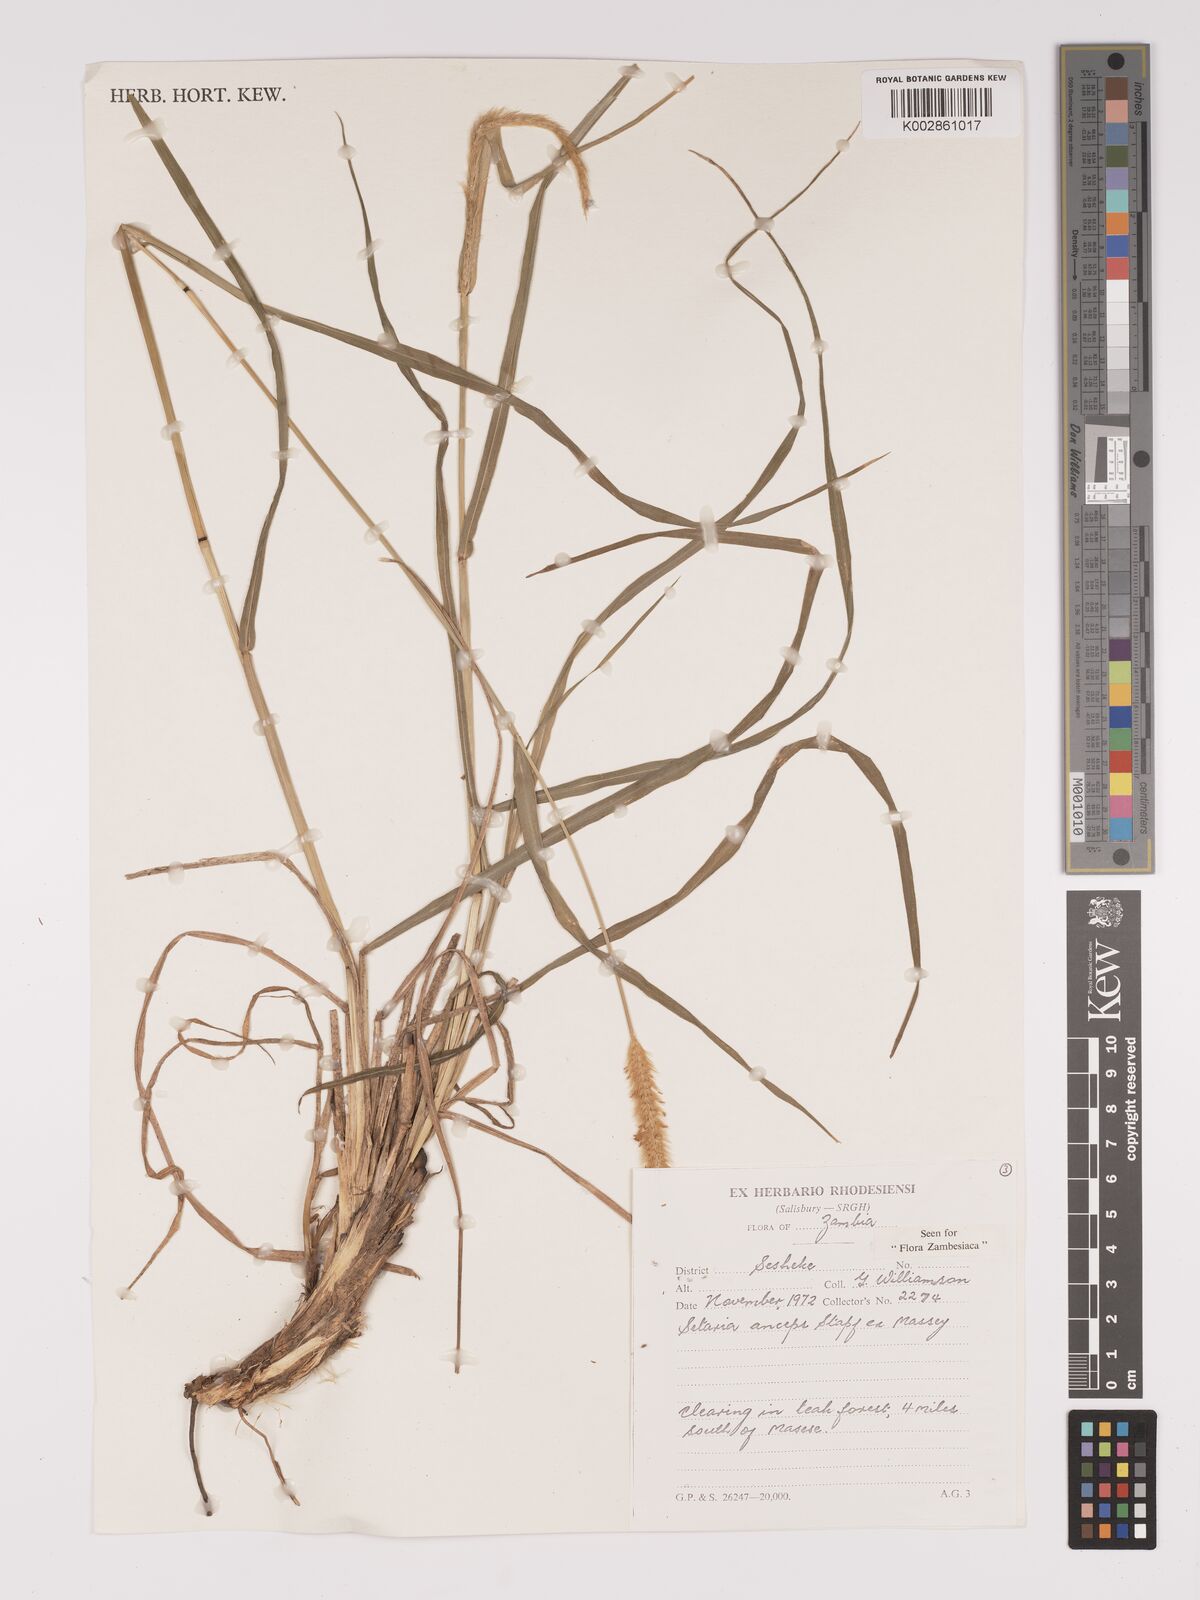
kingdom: Plantae
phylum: Tracheophyta
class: Liliopsida
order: Poales
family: Poaceae
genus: Setaria
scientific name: Setaria sphacelata
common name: African bristlegrass
